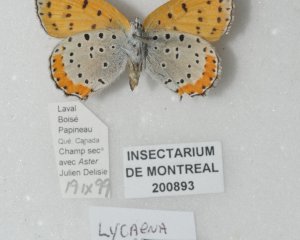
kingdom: Animalia
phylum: Arthropoda
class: Insecta
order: Lepidoptera
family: Sesiidae
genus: Sesia
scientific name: Sesia Lycaena hyllus
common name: Bronze Copper
